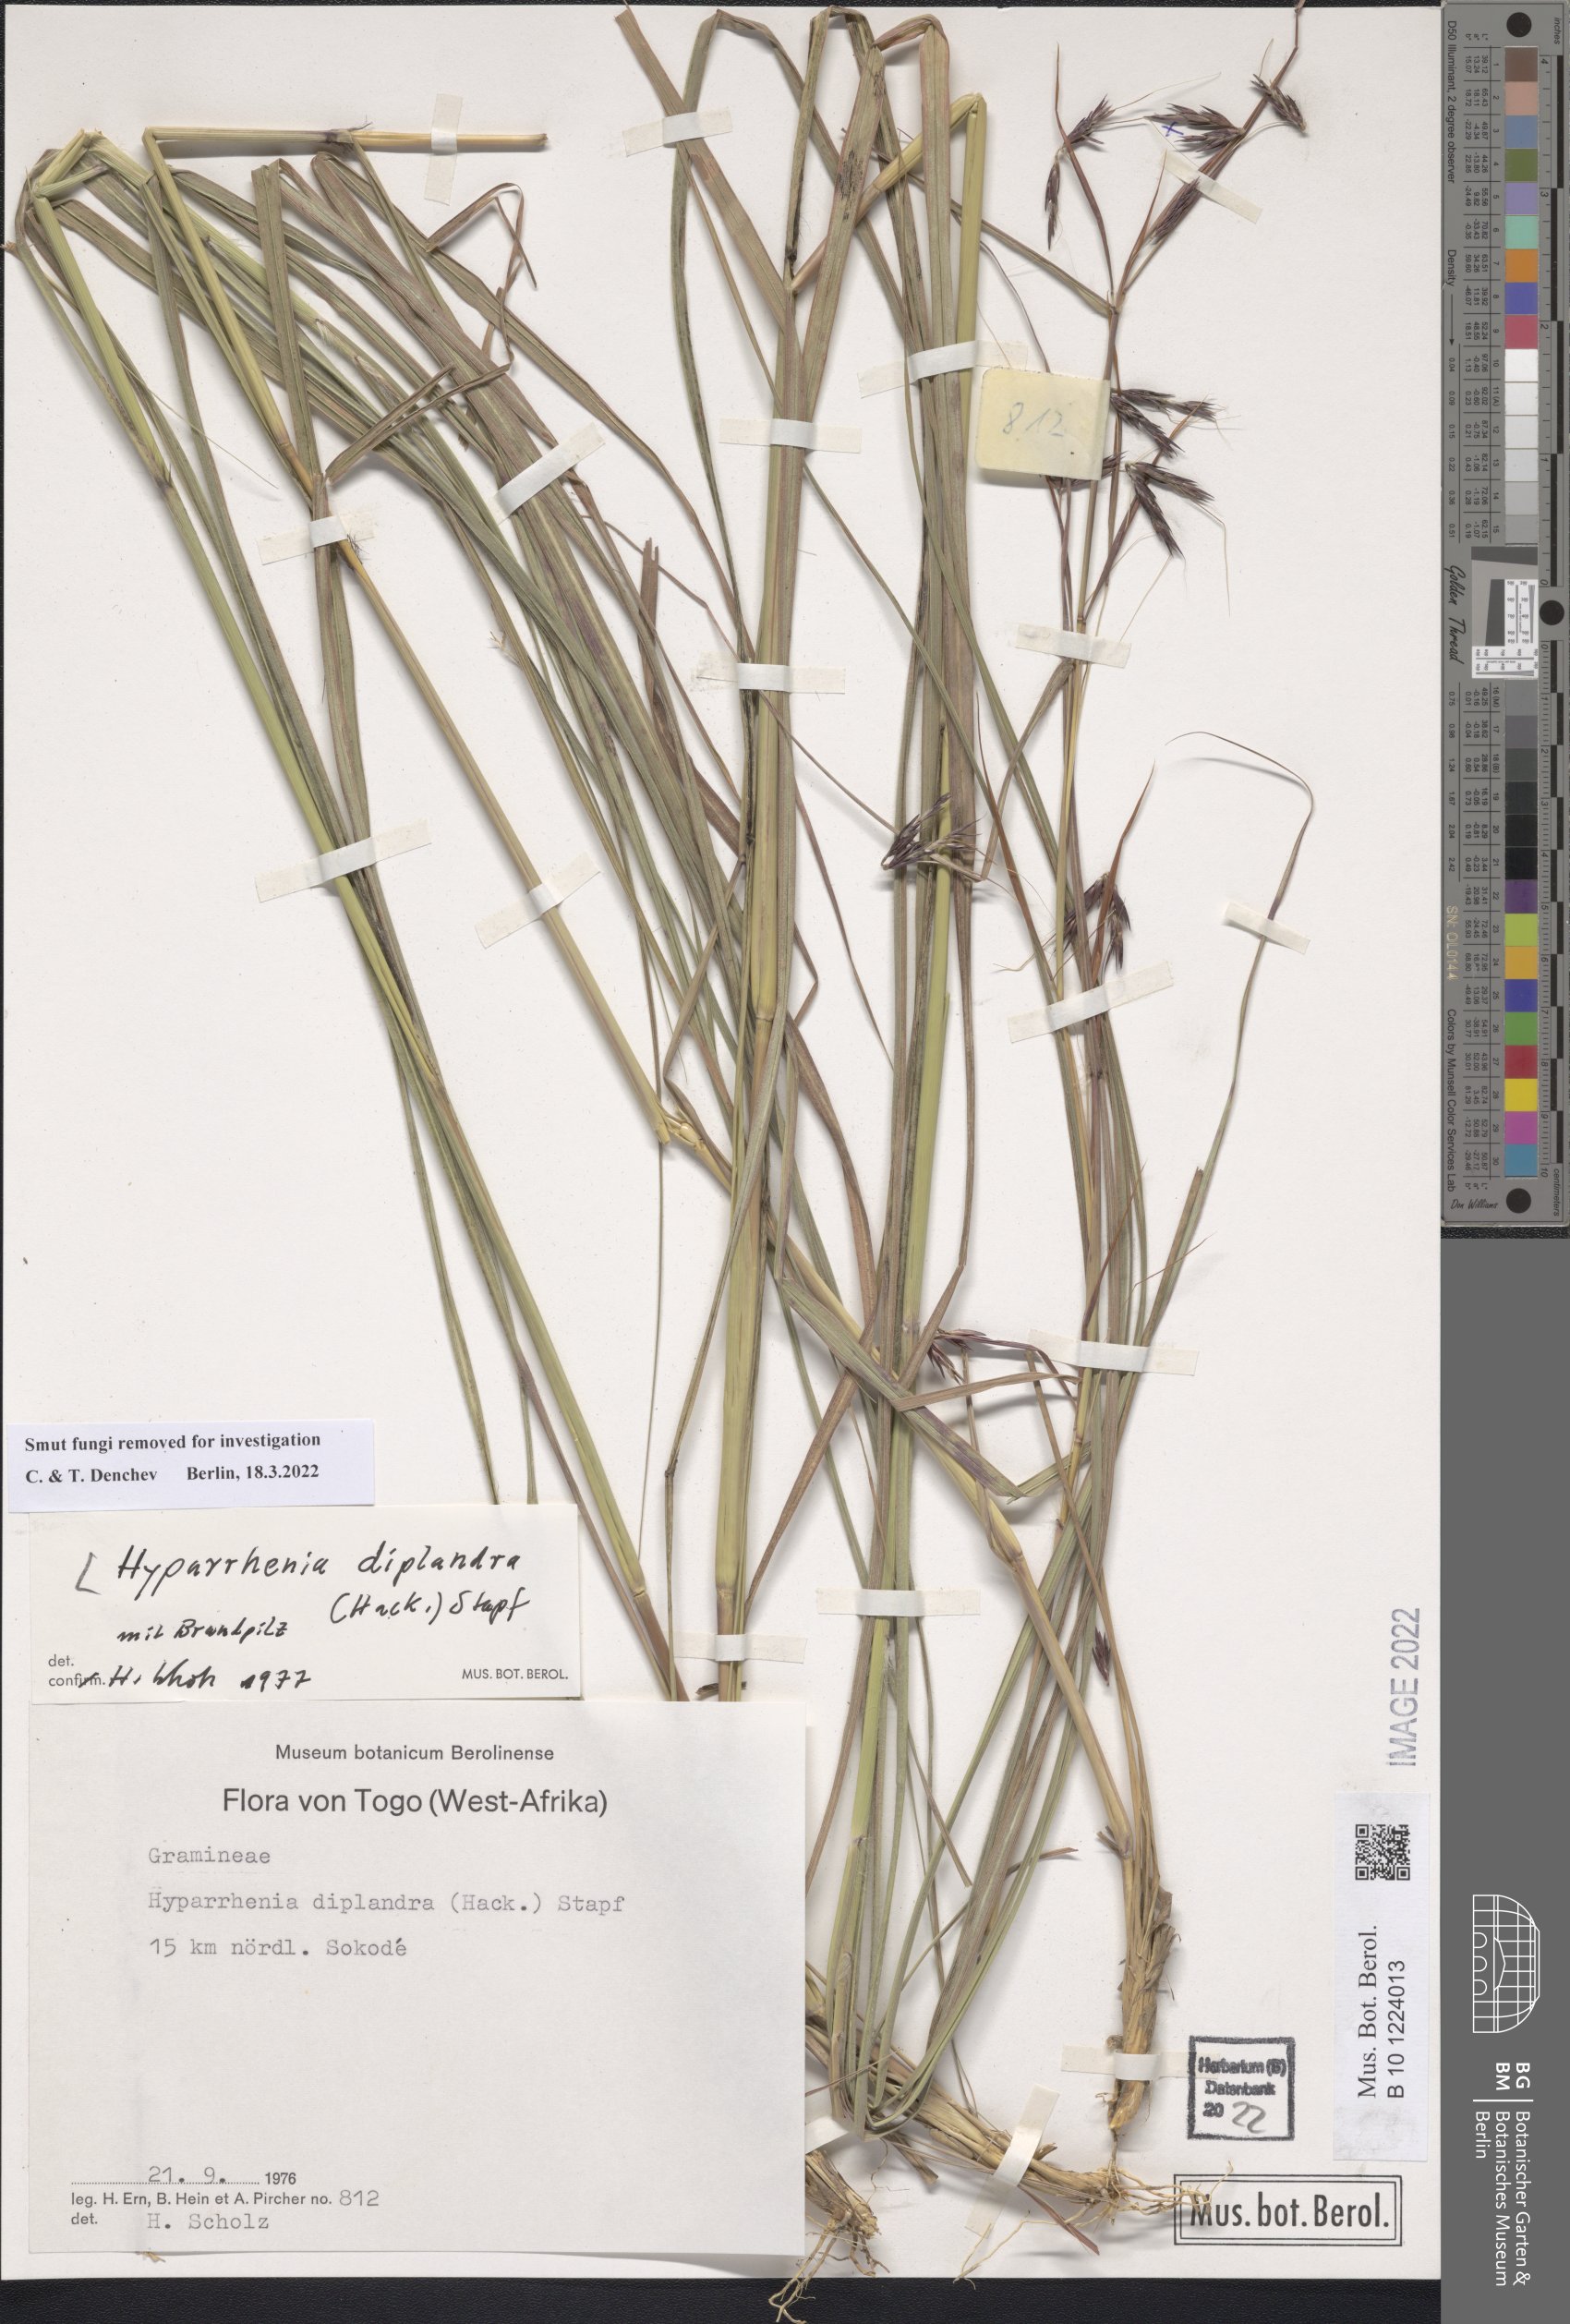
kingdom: Plantae
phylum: Tracheophyta
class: Liliopsida
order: Poales
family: Poaceae
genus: Hyparrhenia
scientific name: Hyparrhenia diplandra
